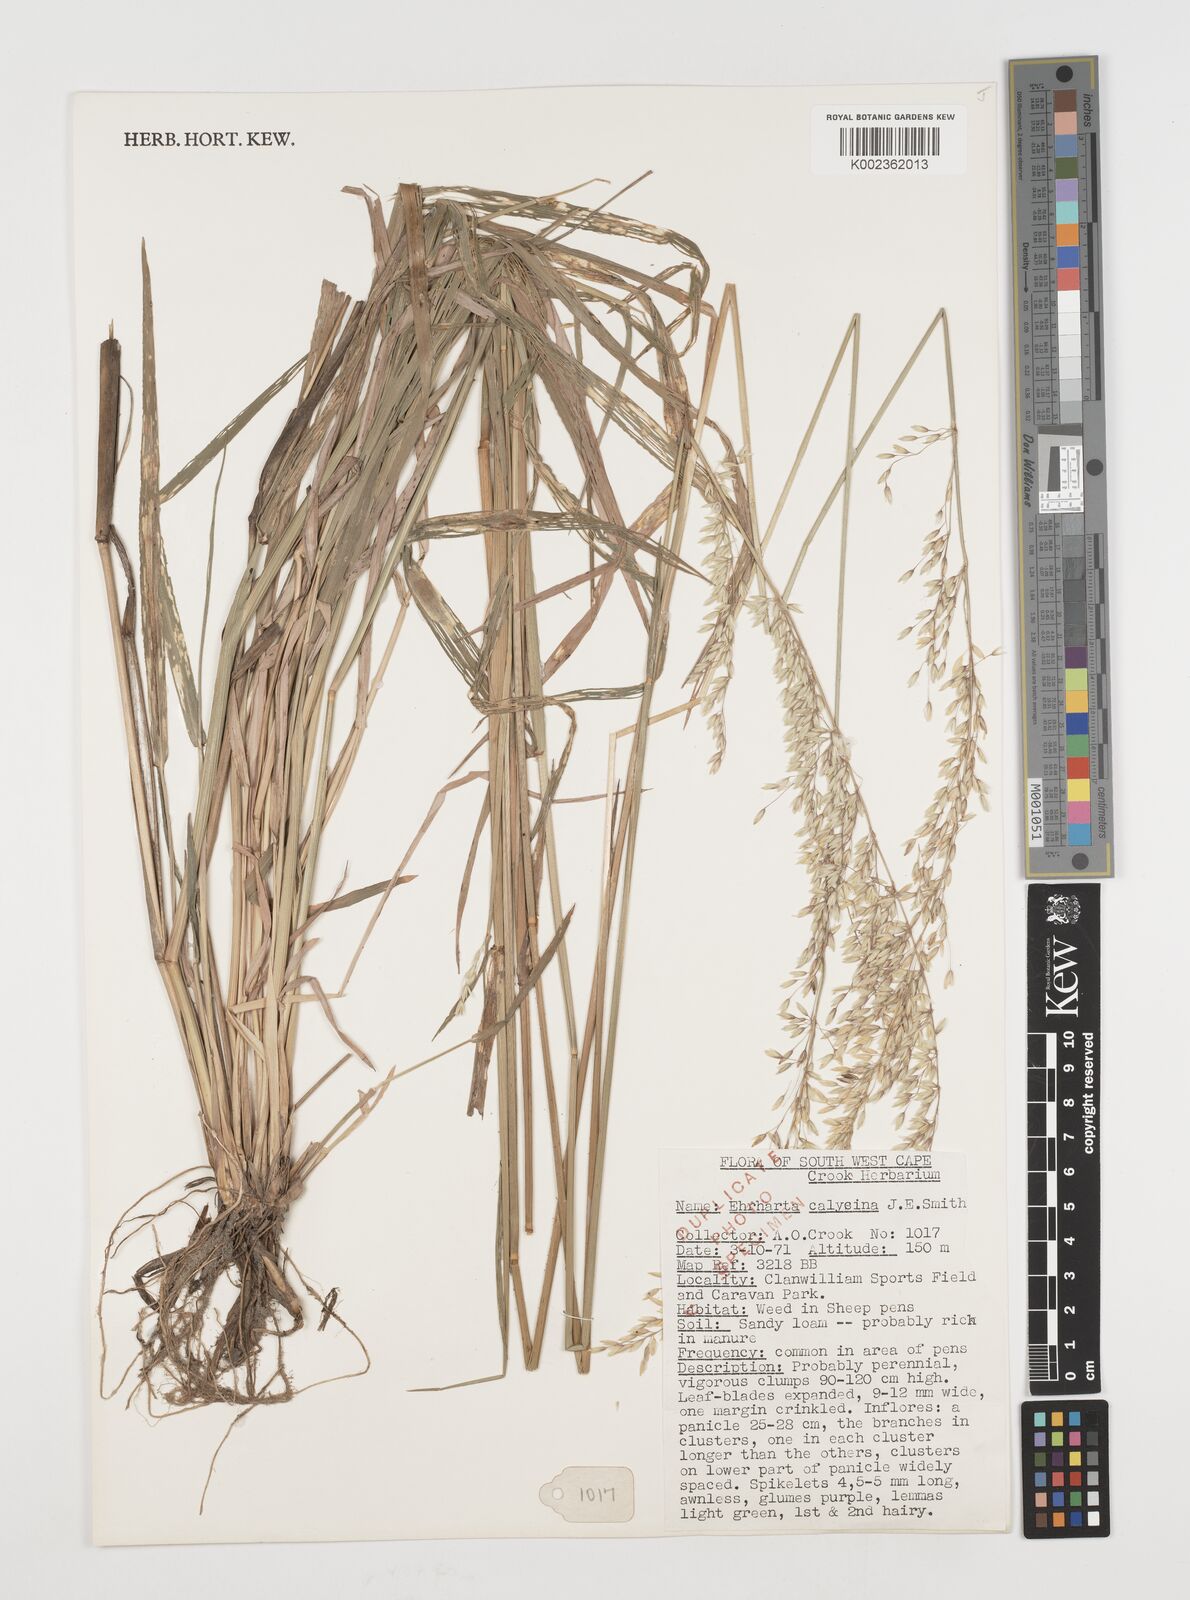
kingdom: Plantae
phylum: Tracheophyta
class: Liliopsida
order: Poales
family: Poaceae
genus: Ehrharta
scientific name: Ehrharta calycina
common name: Perennial veldtgrass
